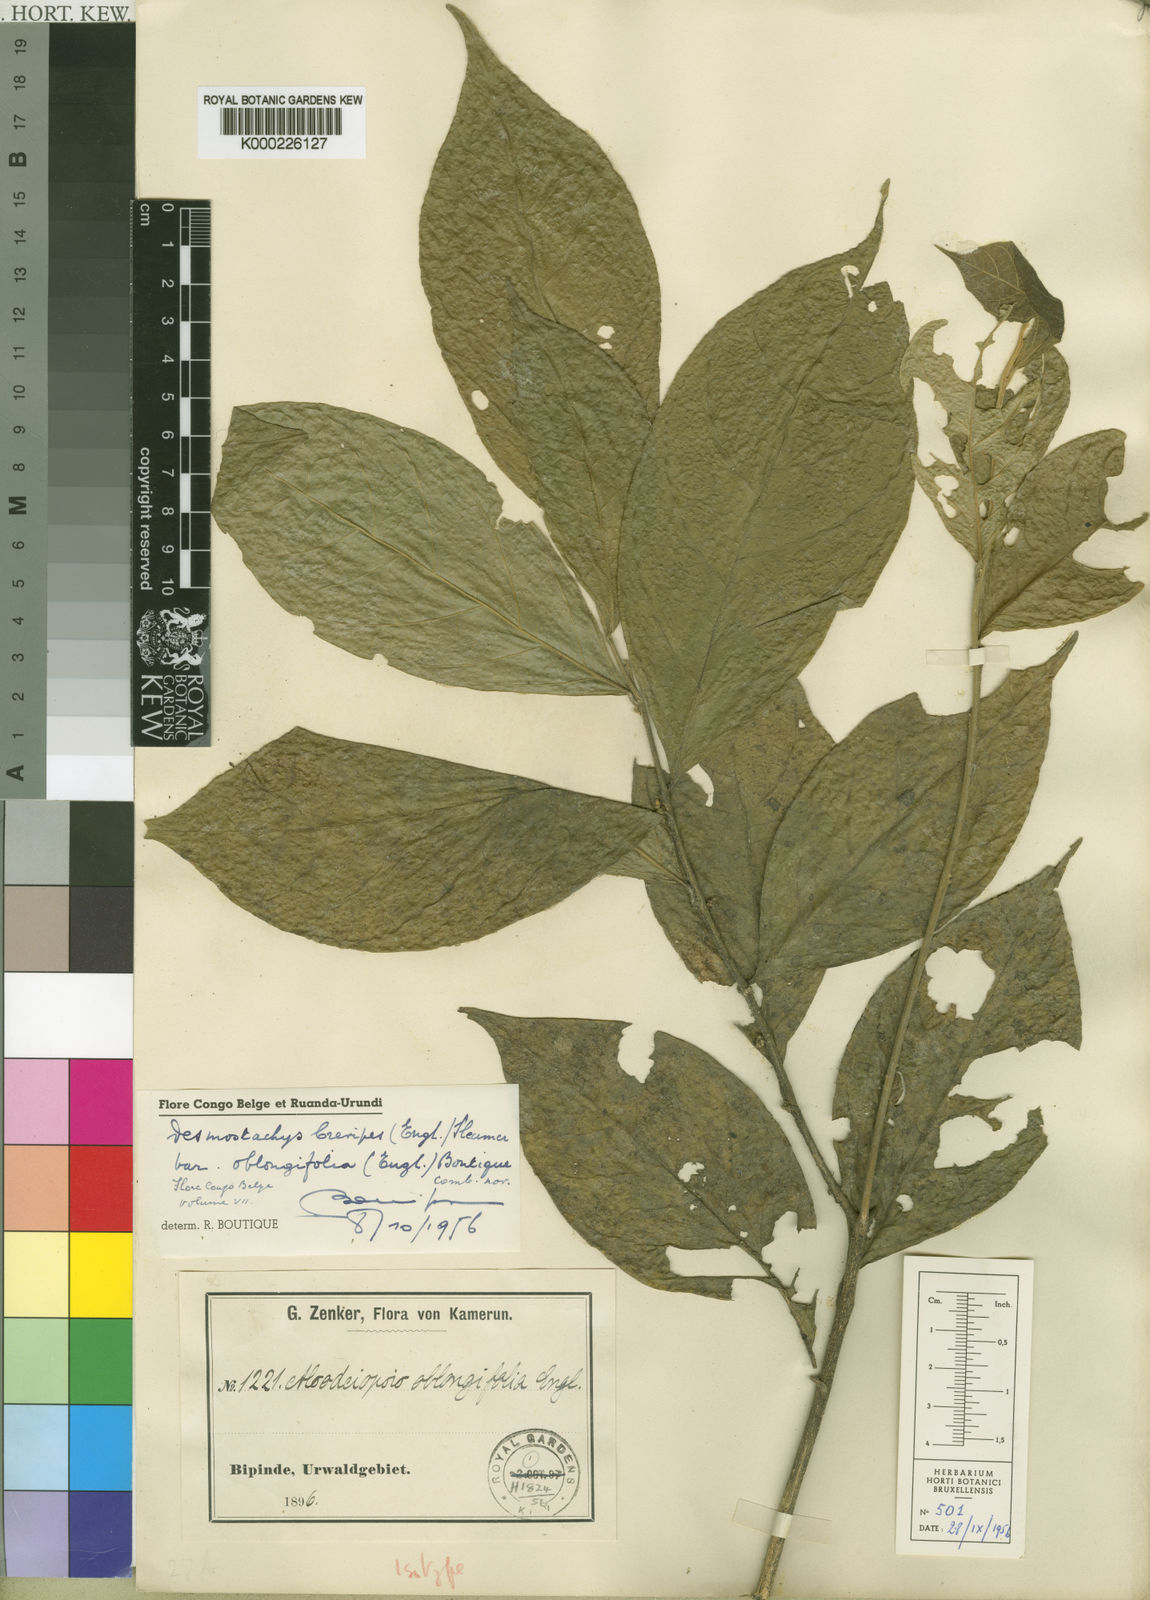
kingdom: Plantae
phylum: Tracheophyta
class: Magnoliopsida
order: Icacinales
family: Icacinaceae
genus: Vadensea
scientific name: Vadensea oblongifolia
